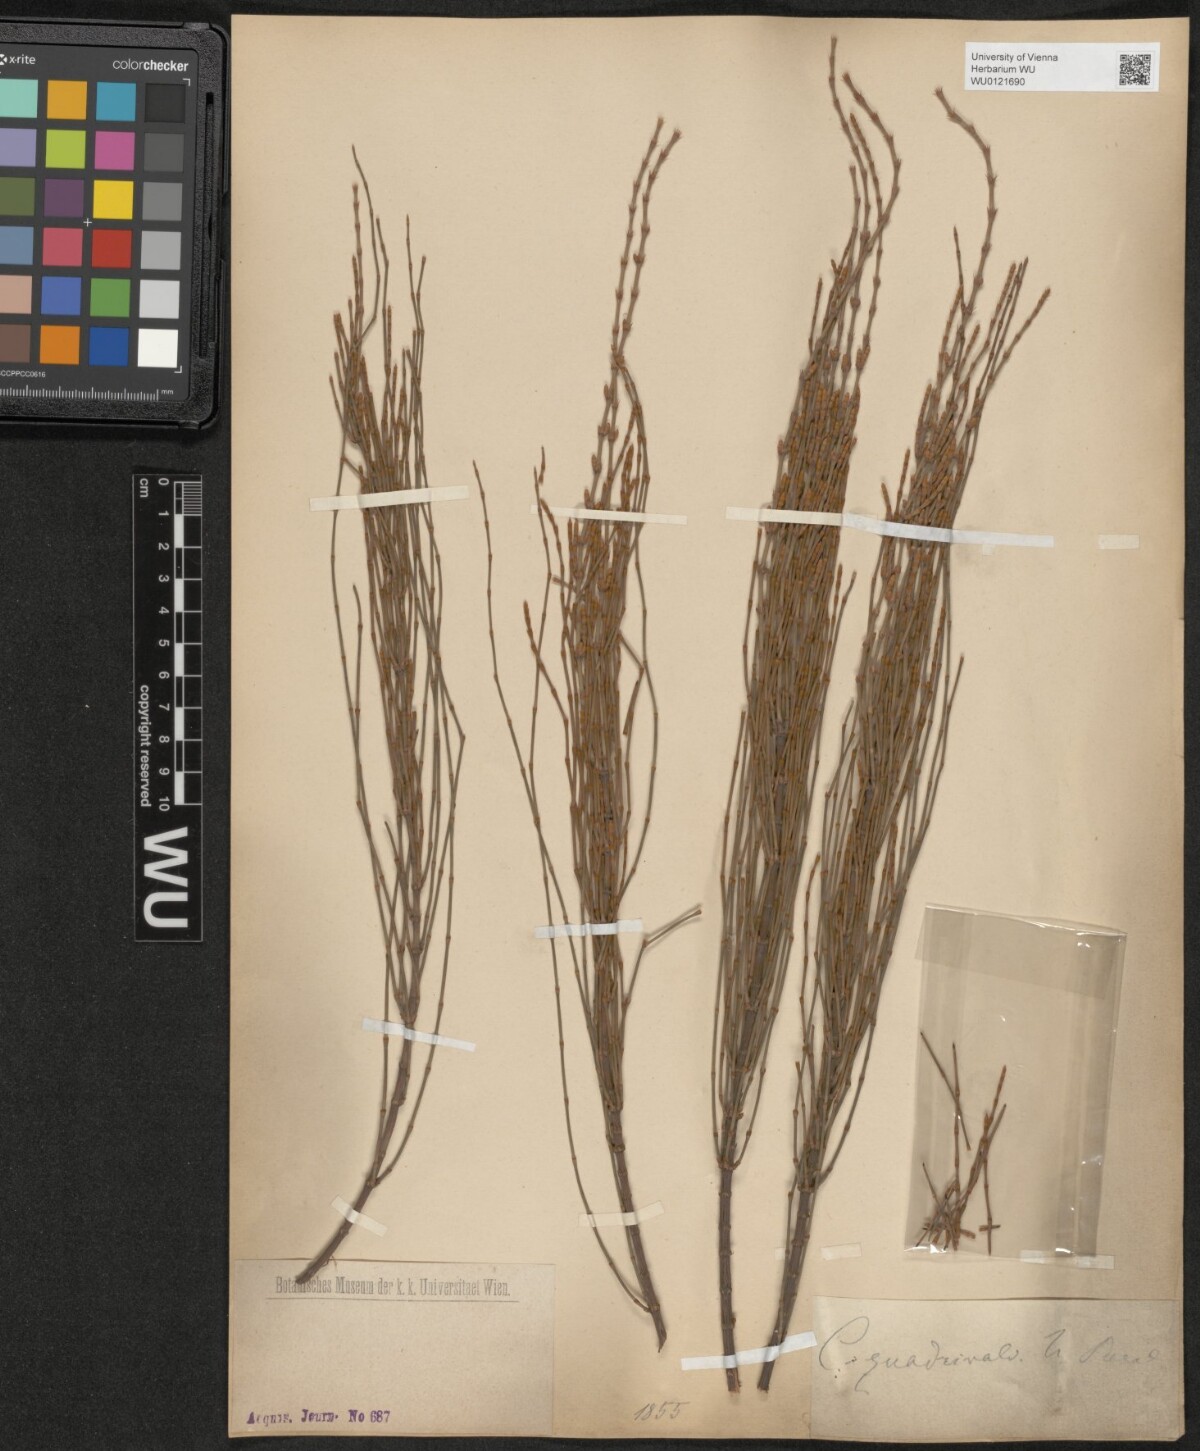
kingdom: Plantae
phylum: Tracheophyta
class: Magnoliopsida
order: Fagales
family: Casuarinaceae
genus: Allocasuarina
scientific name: Allocasuarina verticillata
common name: Drooping she-oak
